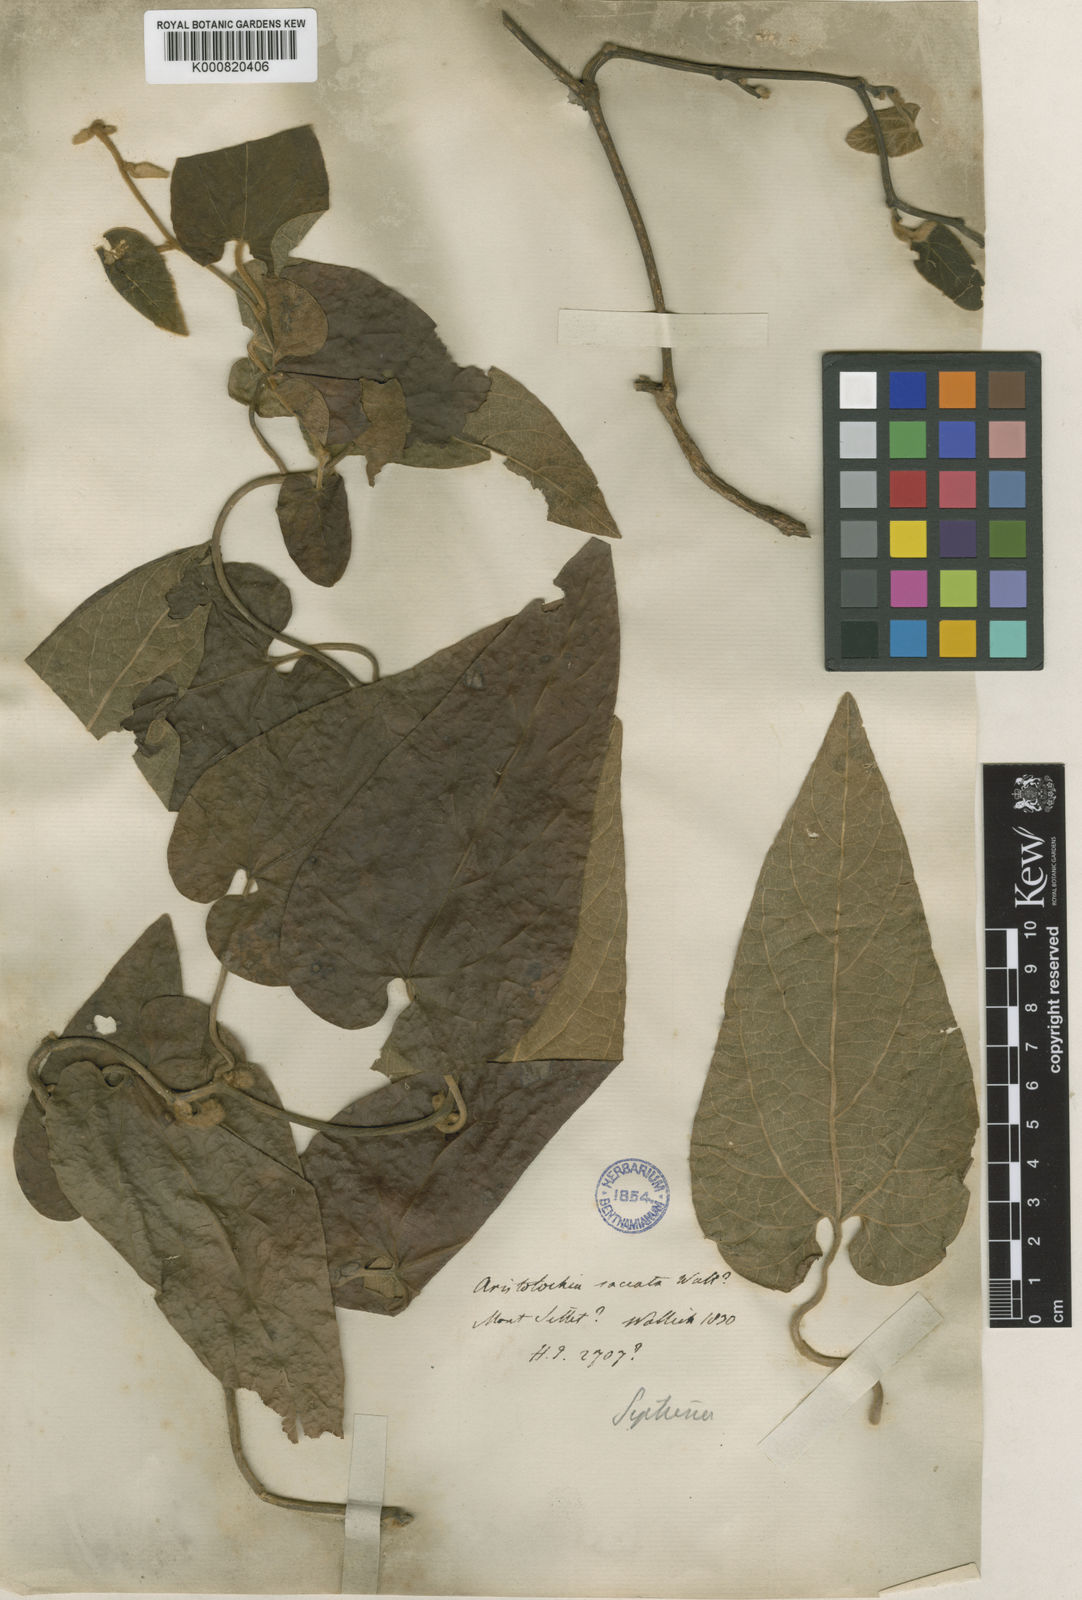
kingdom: Plantae
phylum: Tracheophyta
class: Magnoliopsida
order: Piperales
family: Aristolochiaceae
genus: Isotrema
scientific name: Isotrema
